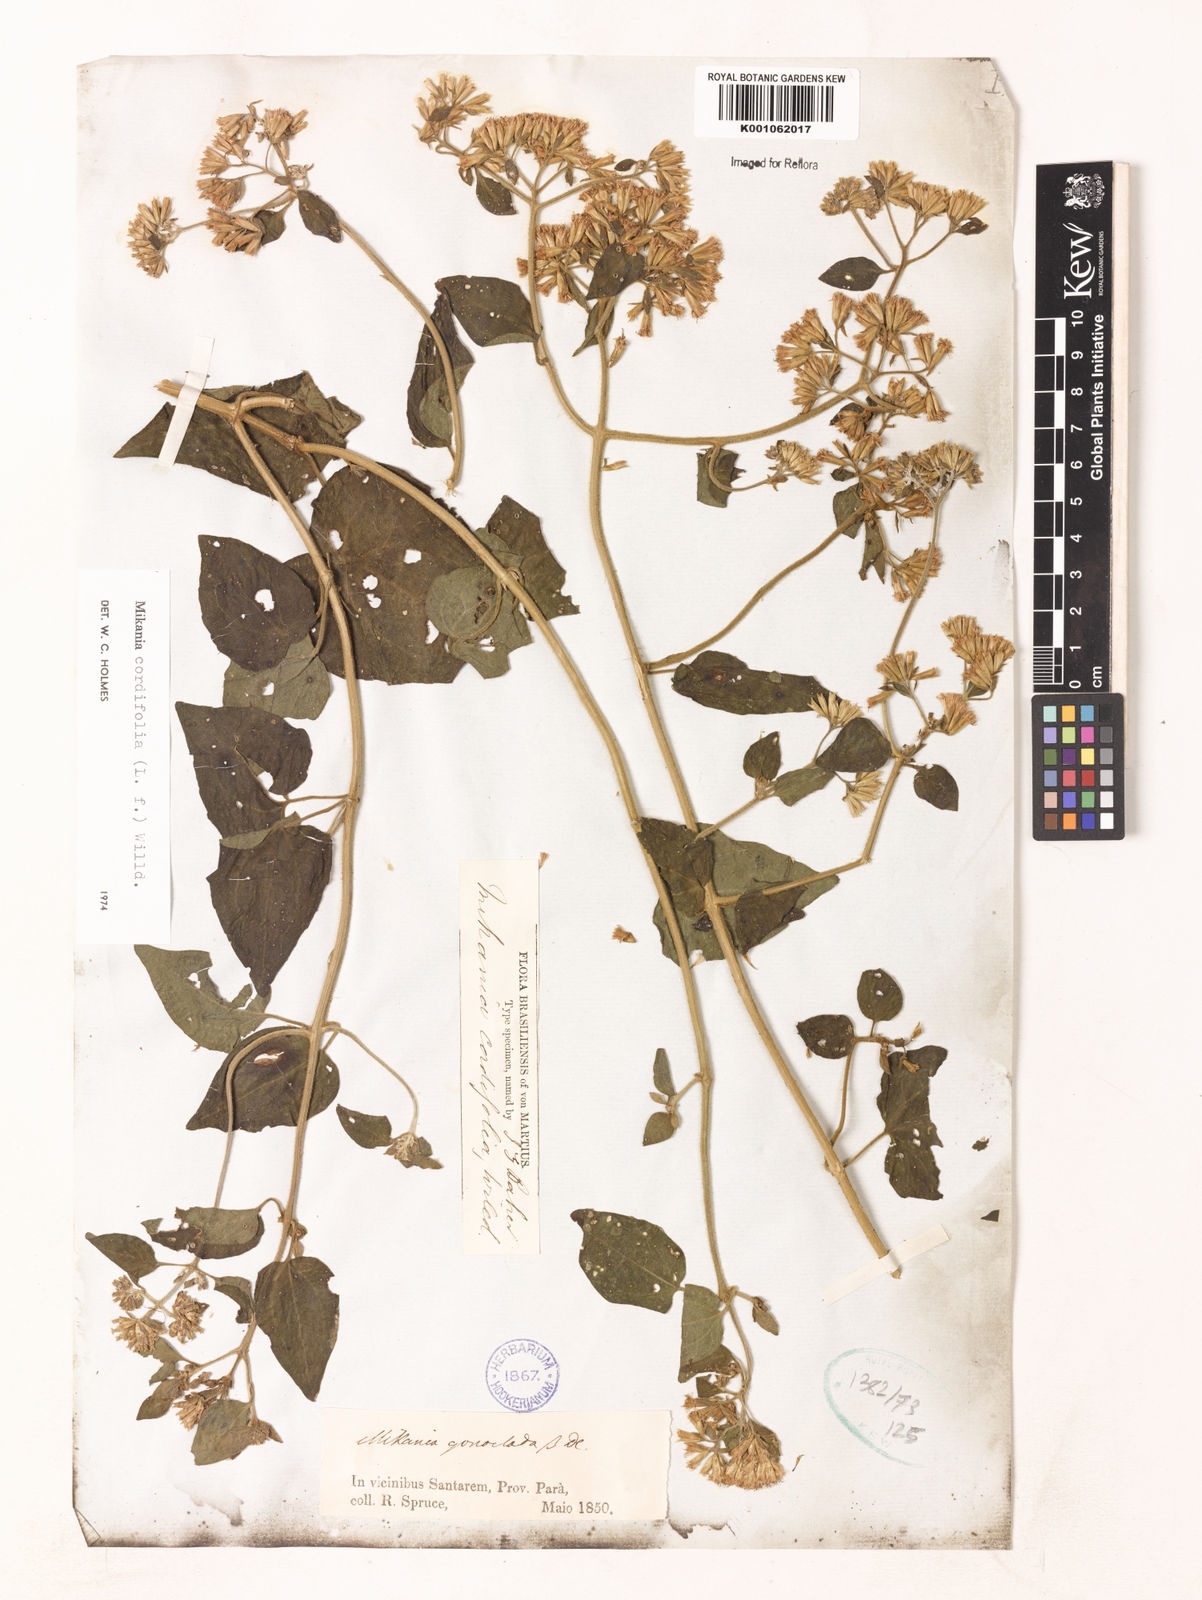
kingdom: Plantae
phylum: Tracheophyta
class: Magnoliopsida
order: Asterales
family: Asteraceae
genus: Mikania
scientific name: Mikania cordifolia
